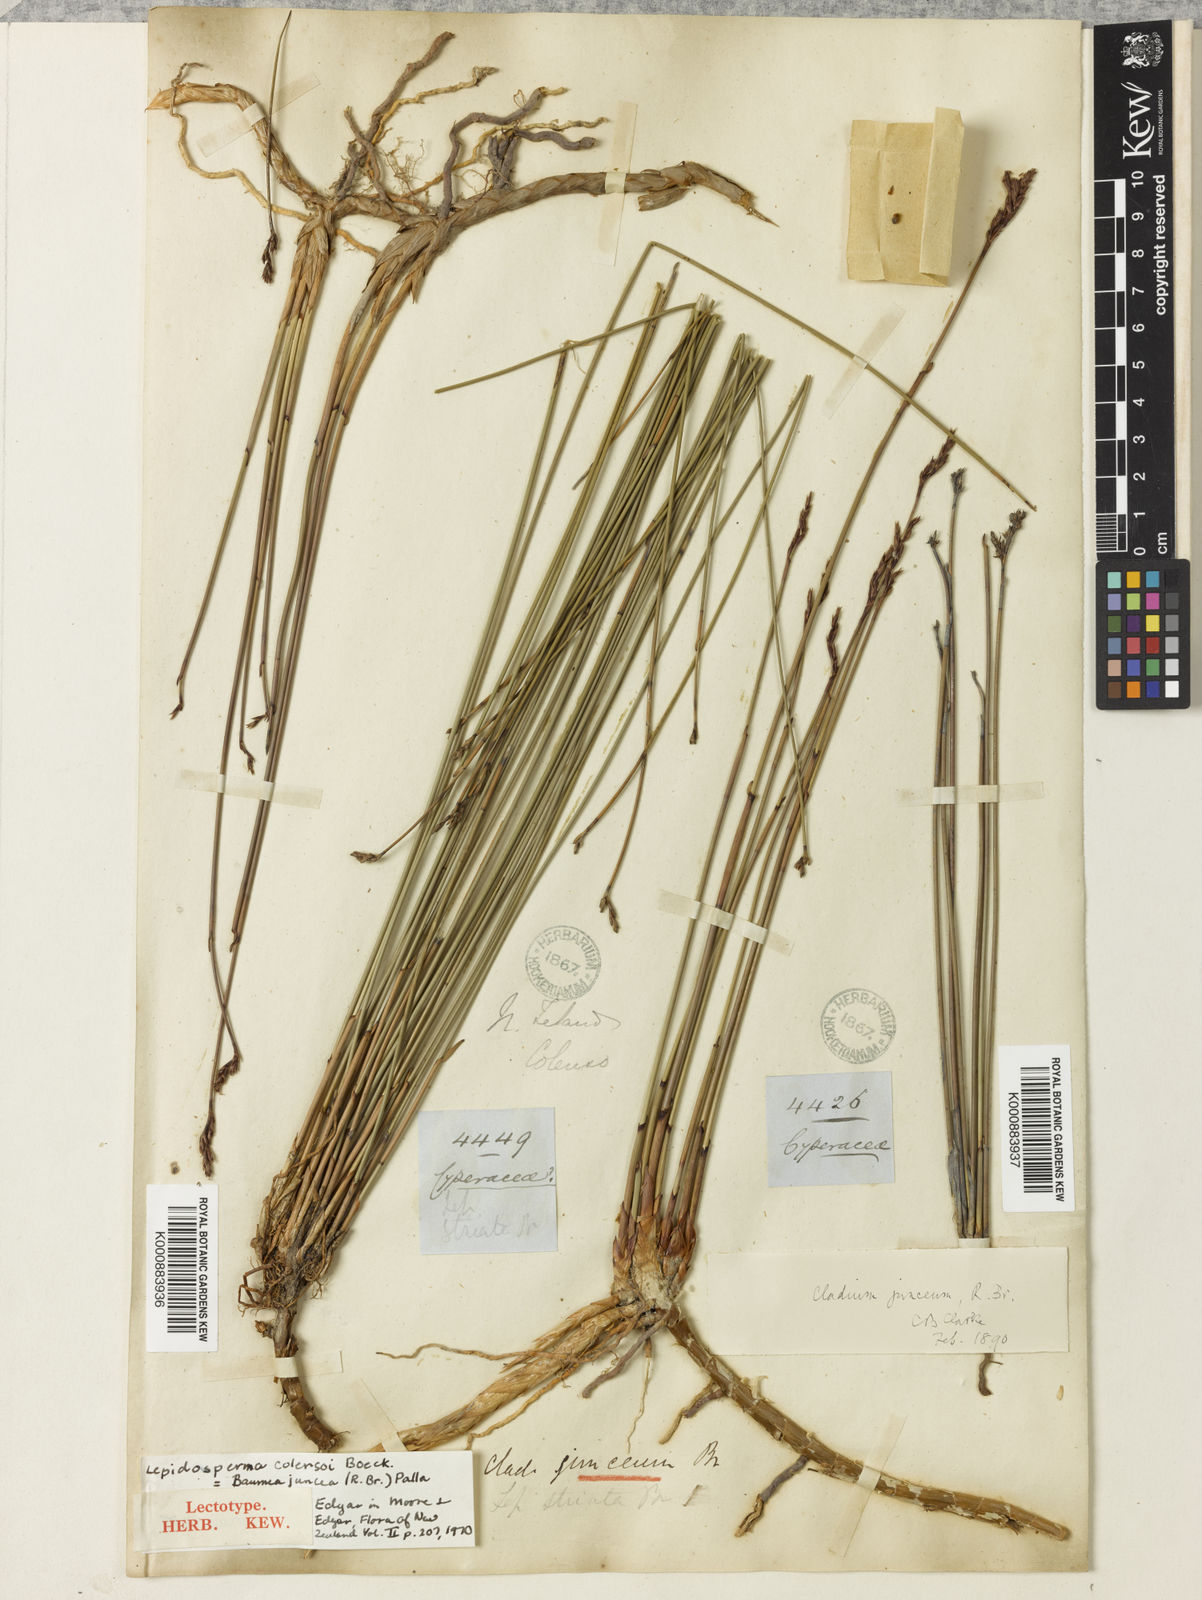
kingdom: Plantae
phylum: Tracheophyta
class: Liliopsida
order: Poales
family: Cyperaceae
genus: Machaerina
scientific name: Machaerina juncea
